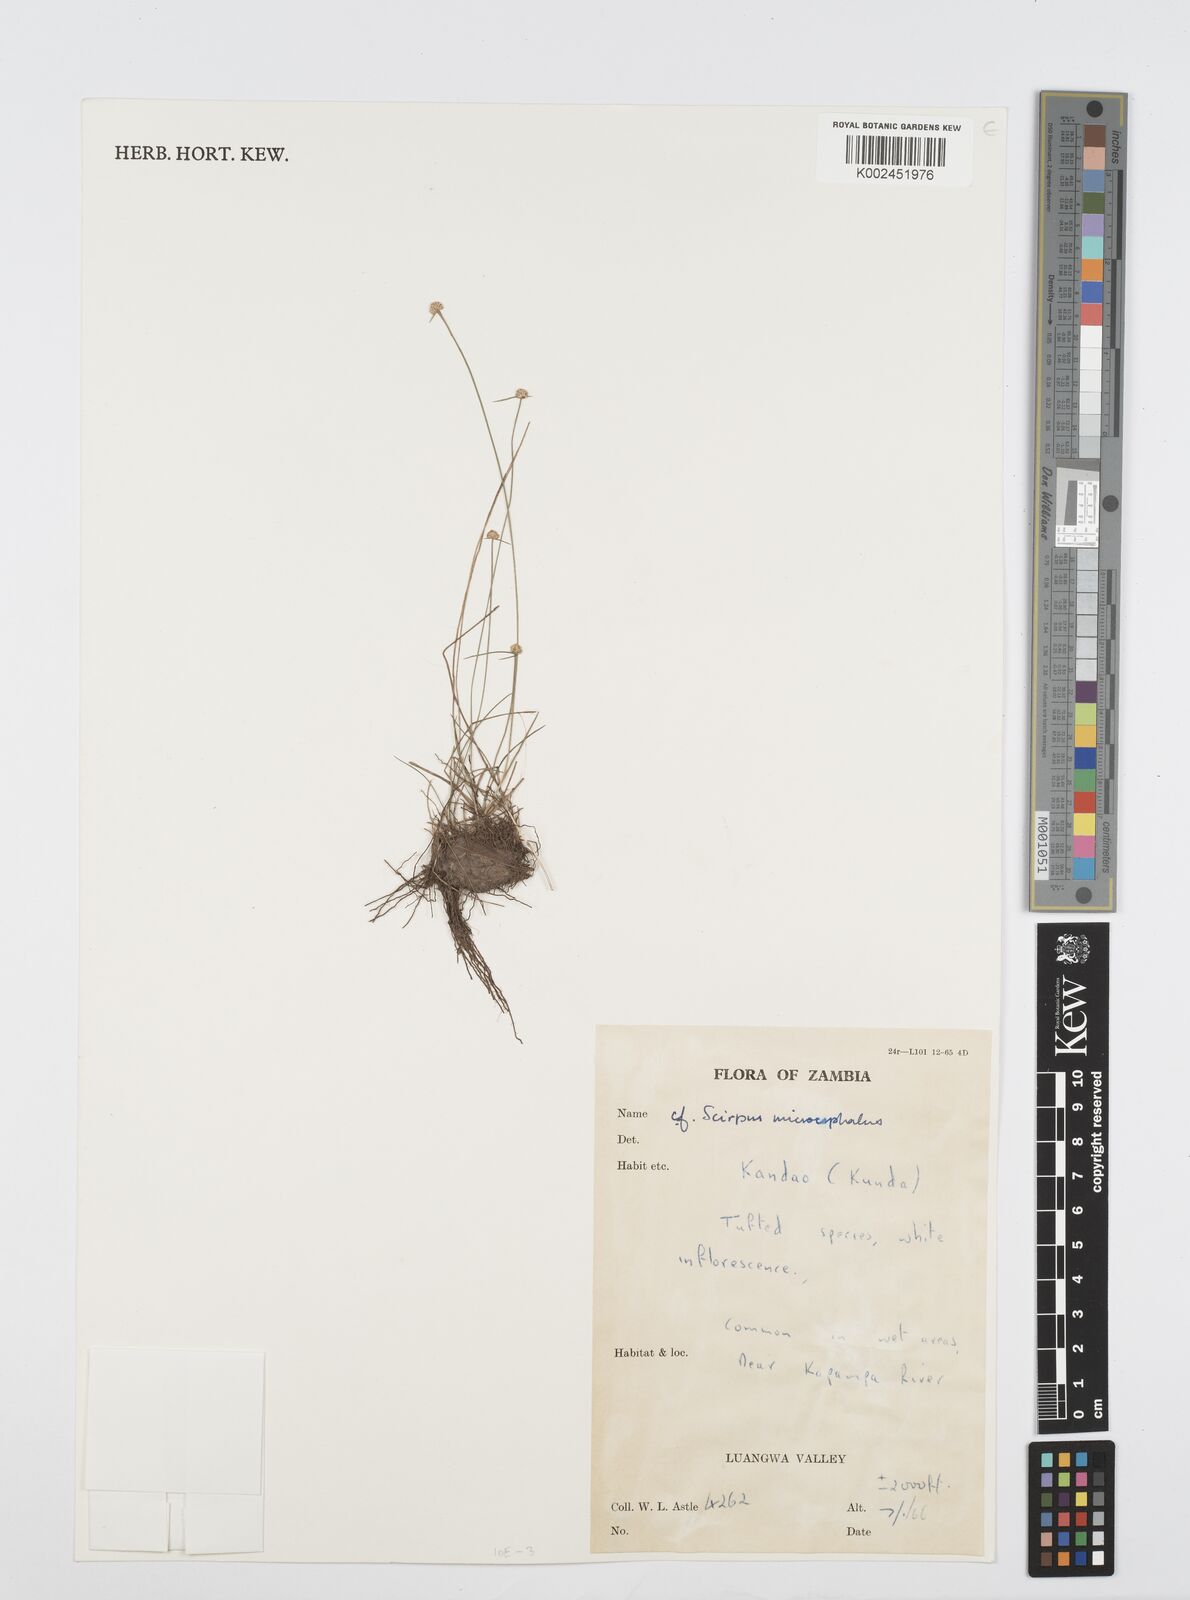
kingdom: Plantae
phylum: Tracheophyta
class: Liliopsida
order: Poales
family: Cyperaceae
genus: Cyperus
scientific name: Cyperus microcephalus
